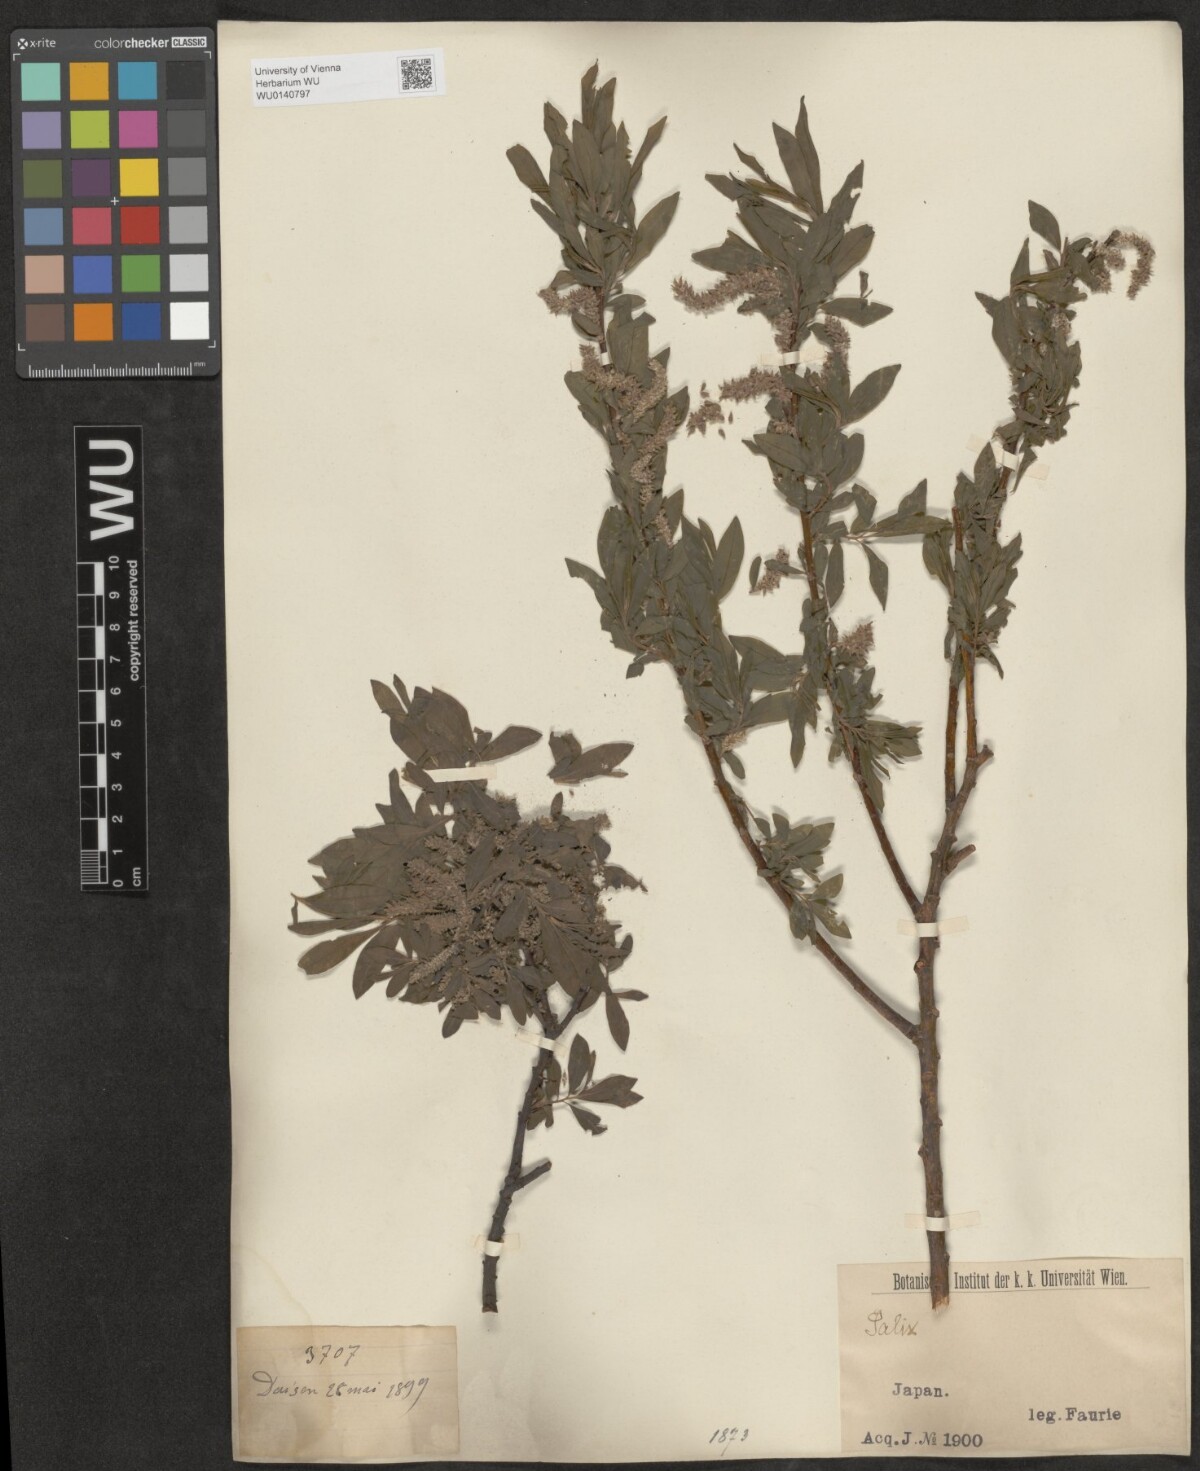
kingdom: Plantae
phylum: Tracheophyta
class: Magnoliopsida
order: Malpighiales
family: Salicaceae
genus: Salix
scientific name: Salix
